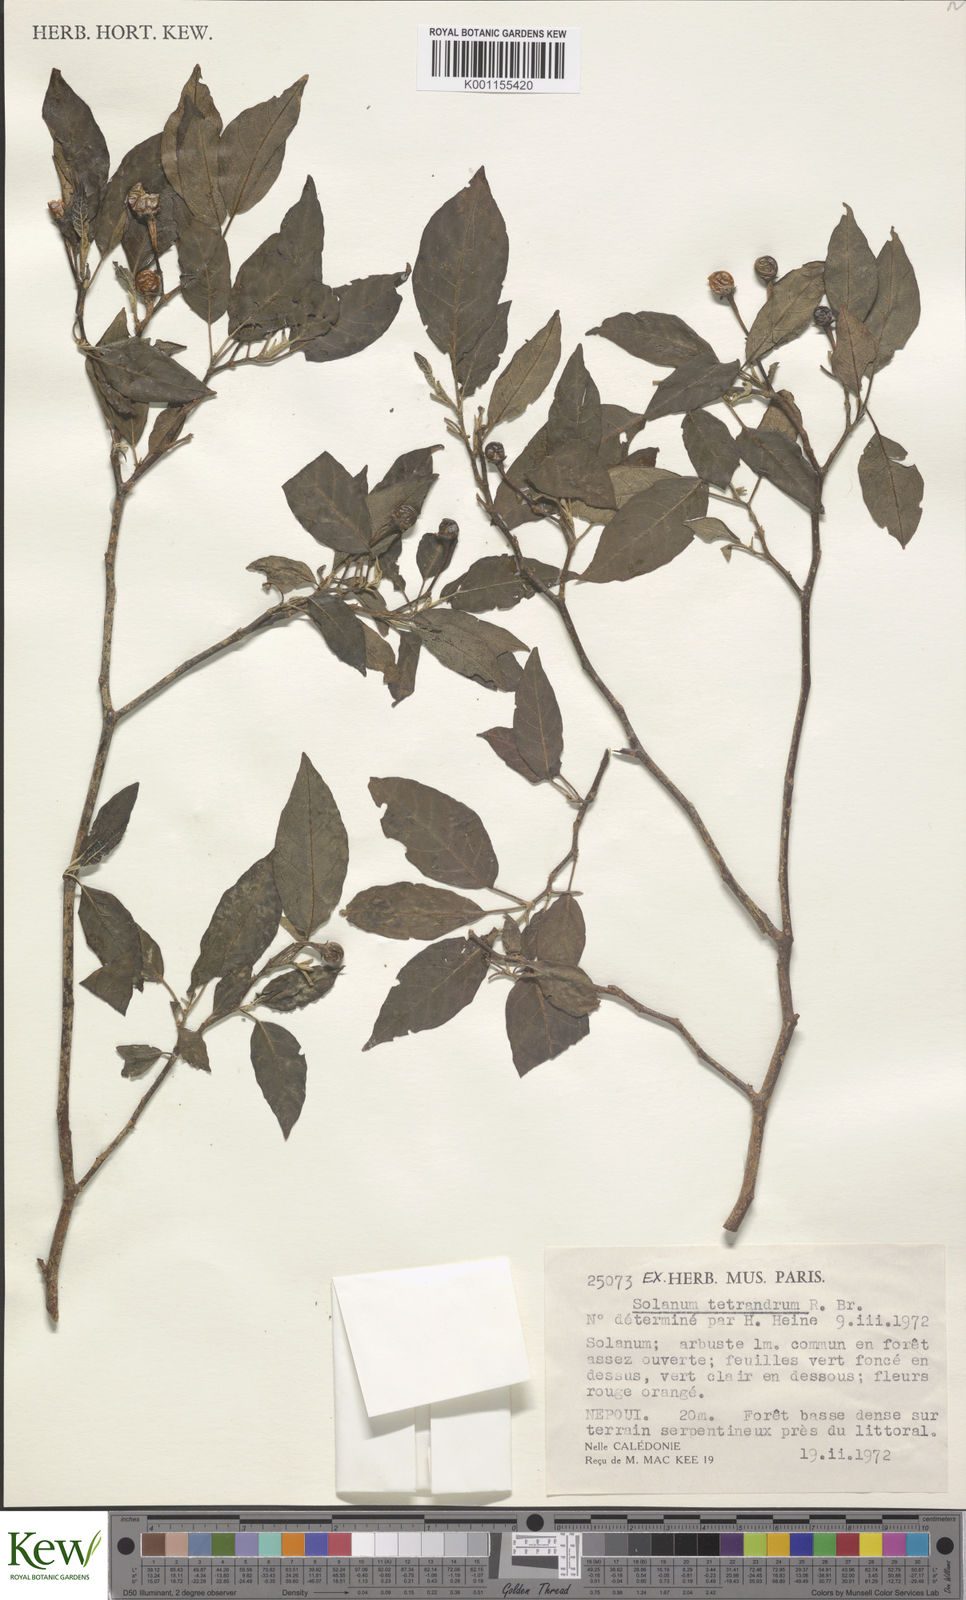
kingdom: Plantae
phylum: Tracheophyta
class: Magnoliopsida
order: Solanales
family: Solanaceae
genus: Solanum
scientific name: Solanum tetrandrum
